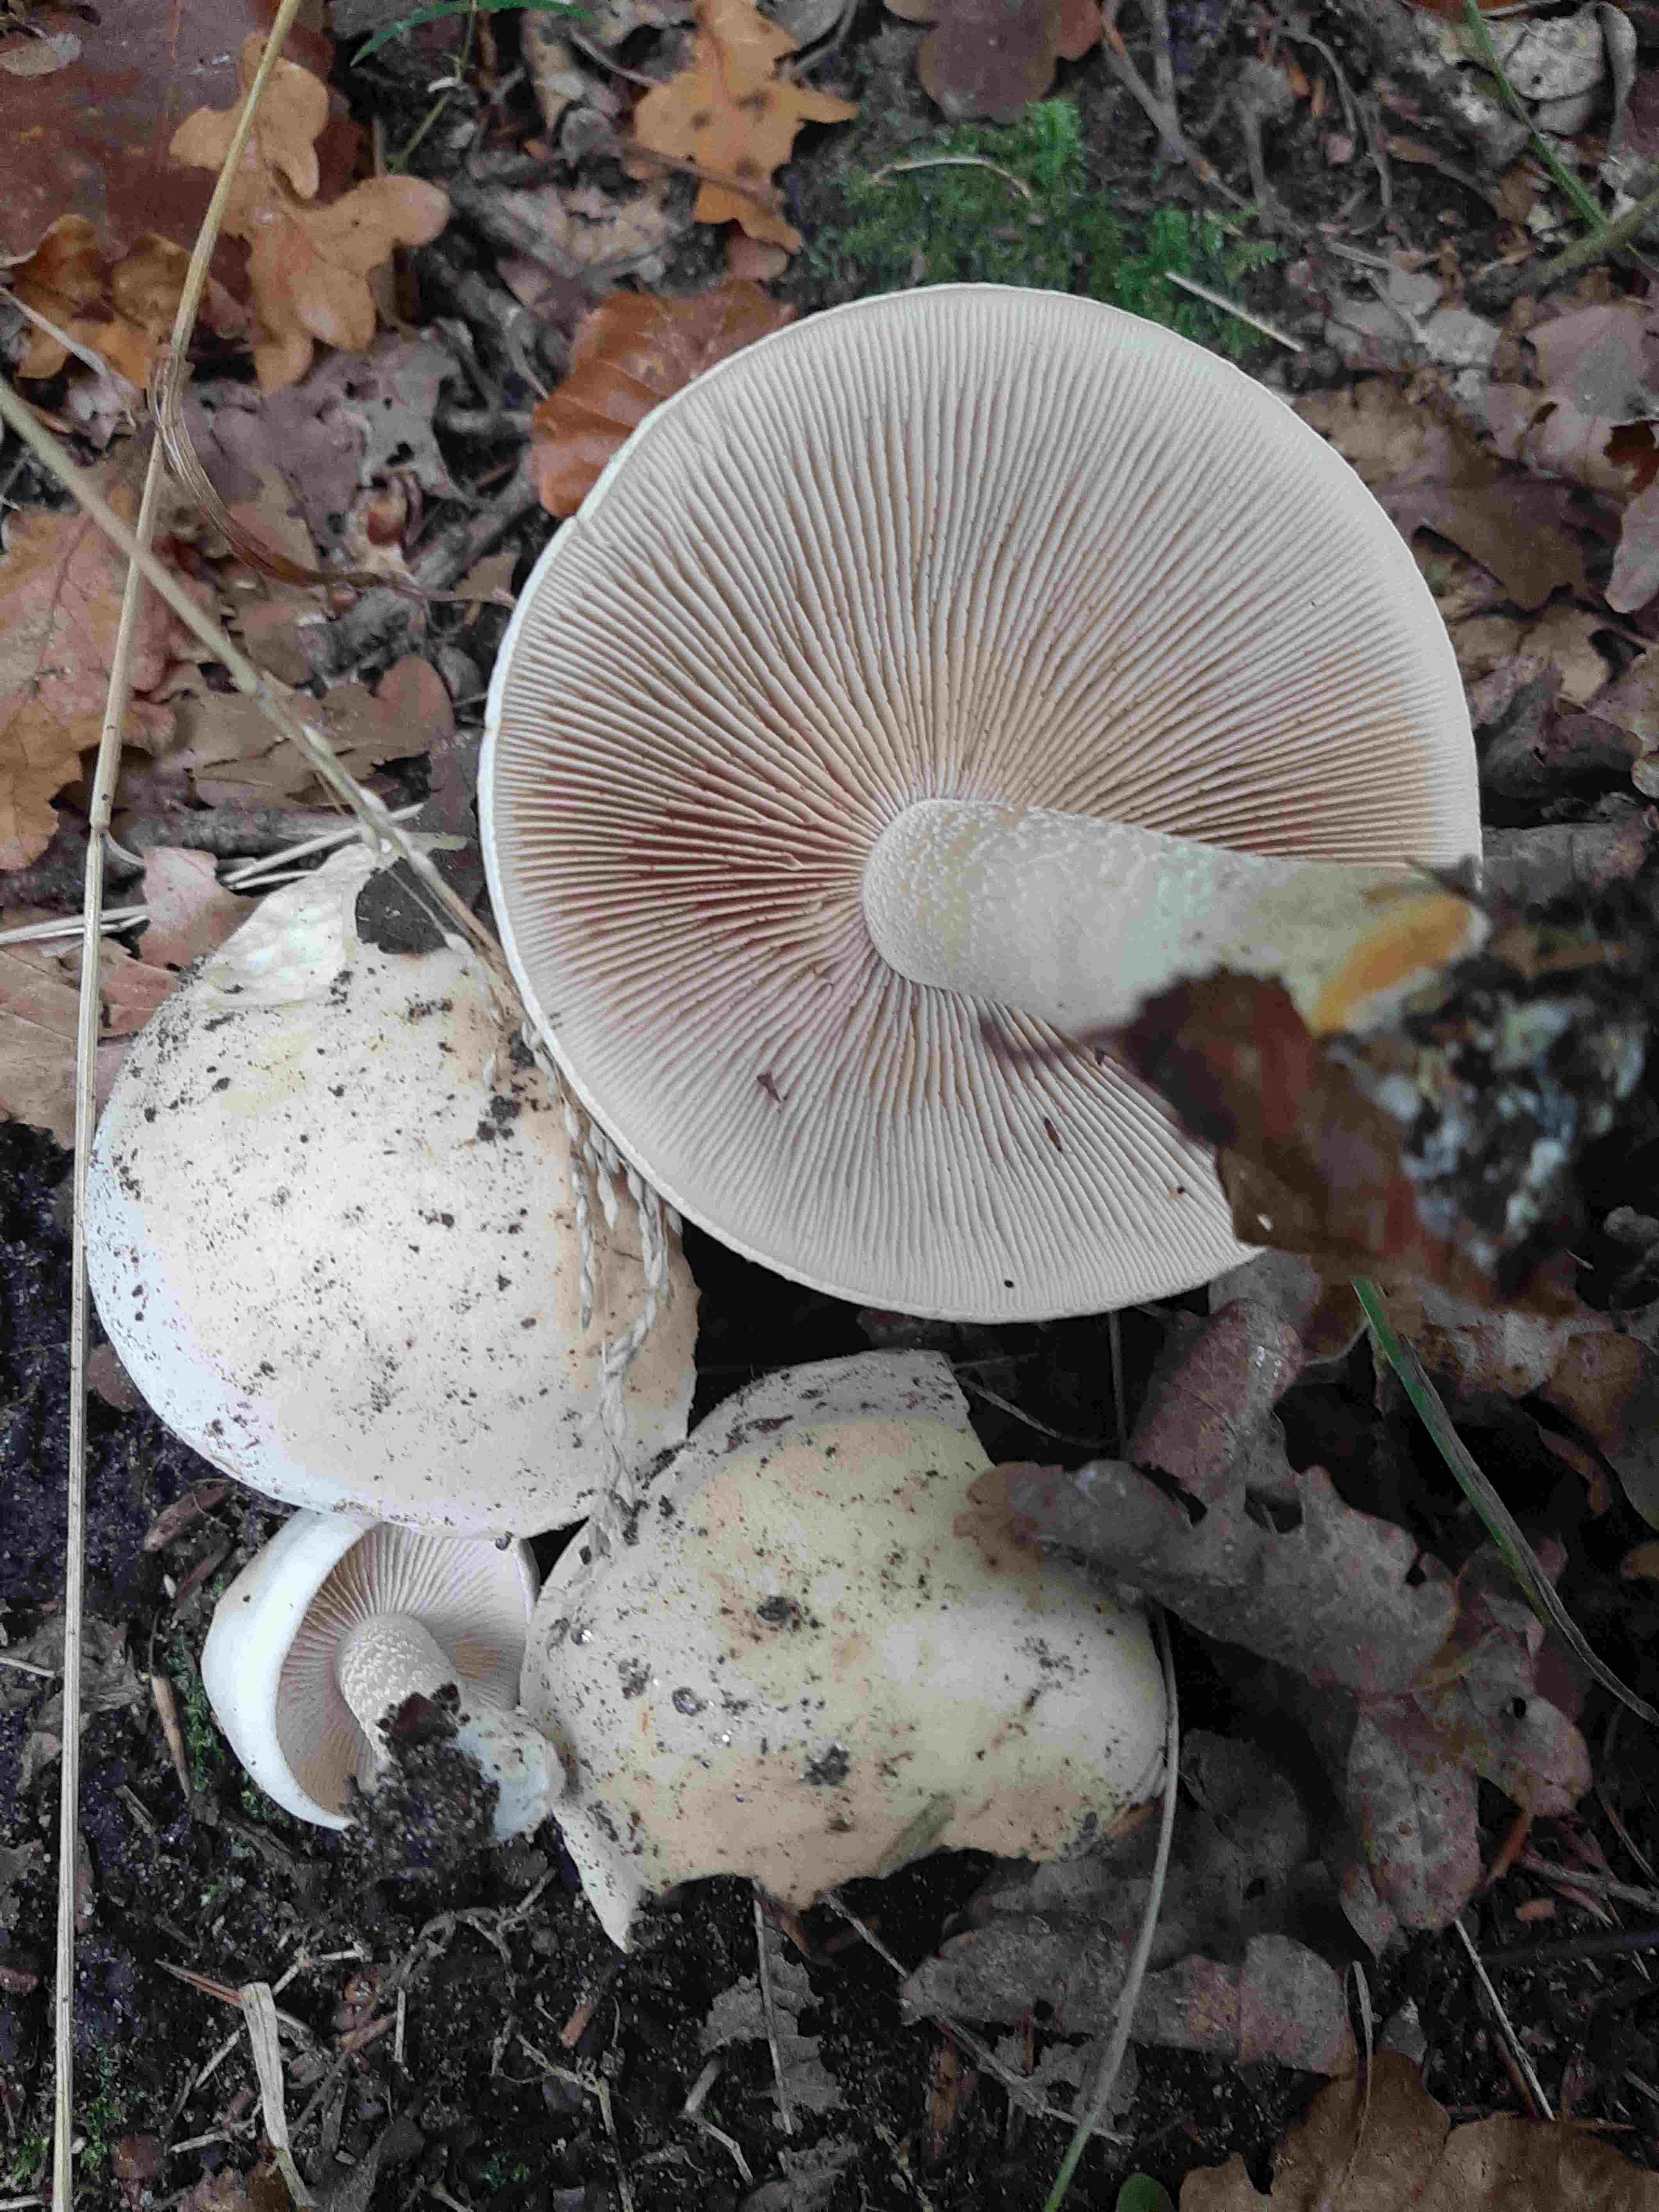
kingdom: Fungi
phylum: Basidiomycota
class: Agaricomycetes
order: Agaricales
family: Hymenogastraceae
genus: Hebeloma
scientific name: Hebeloma
